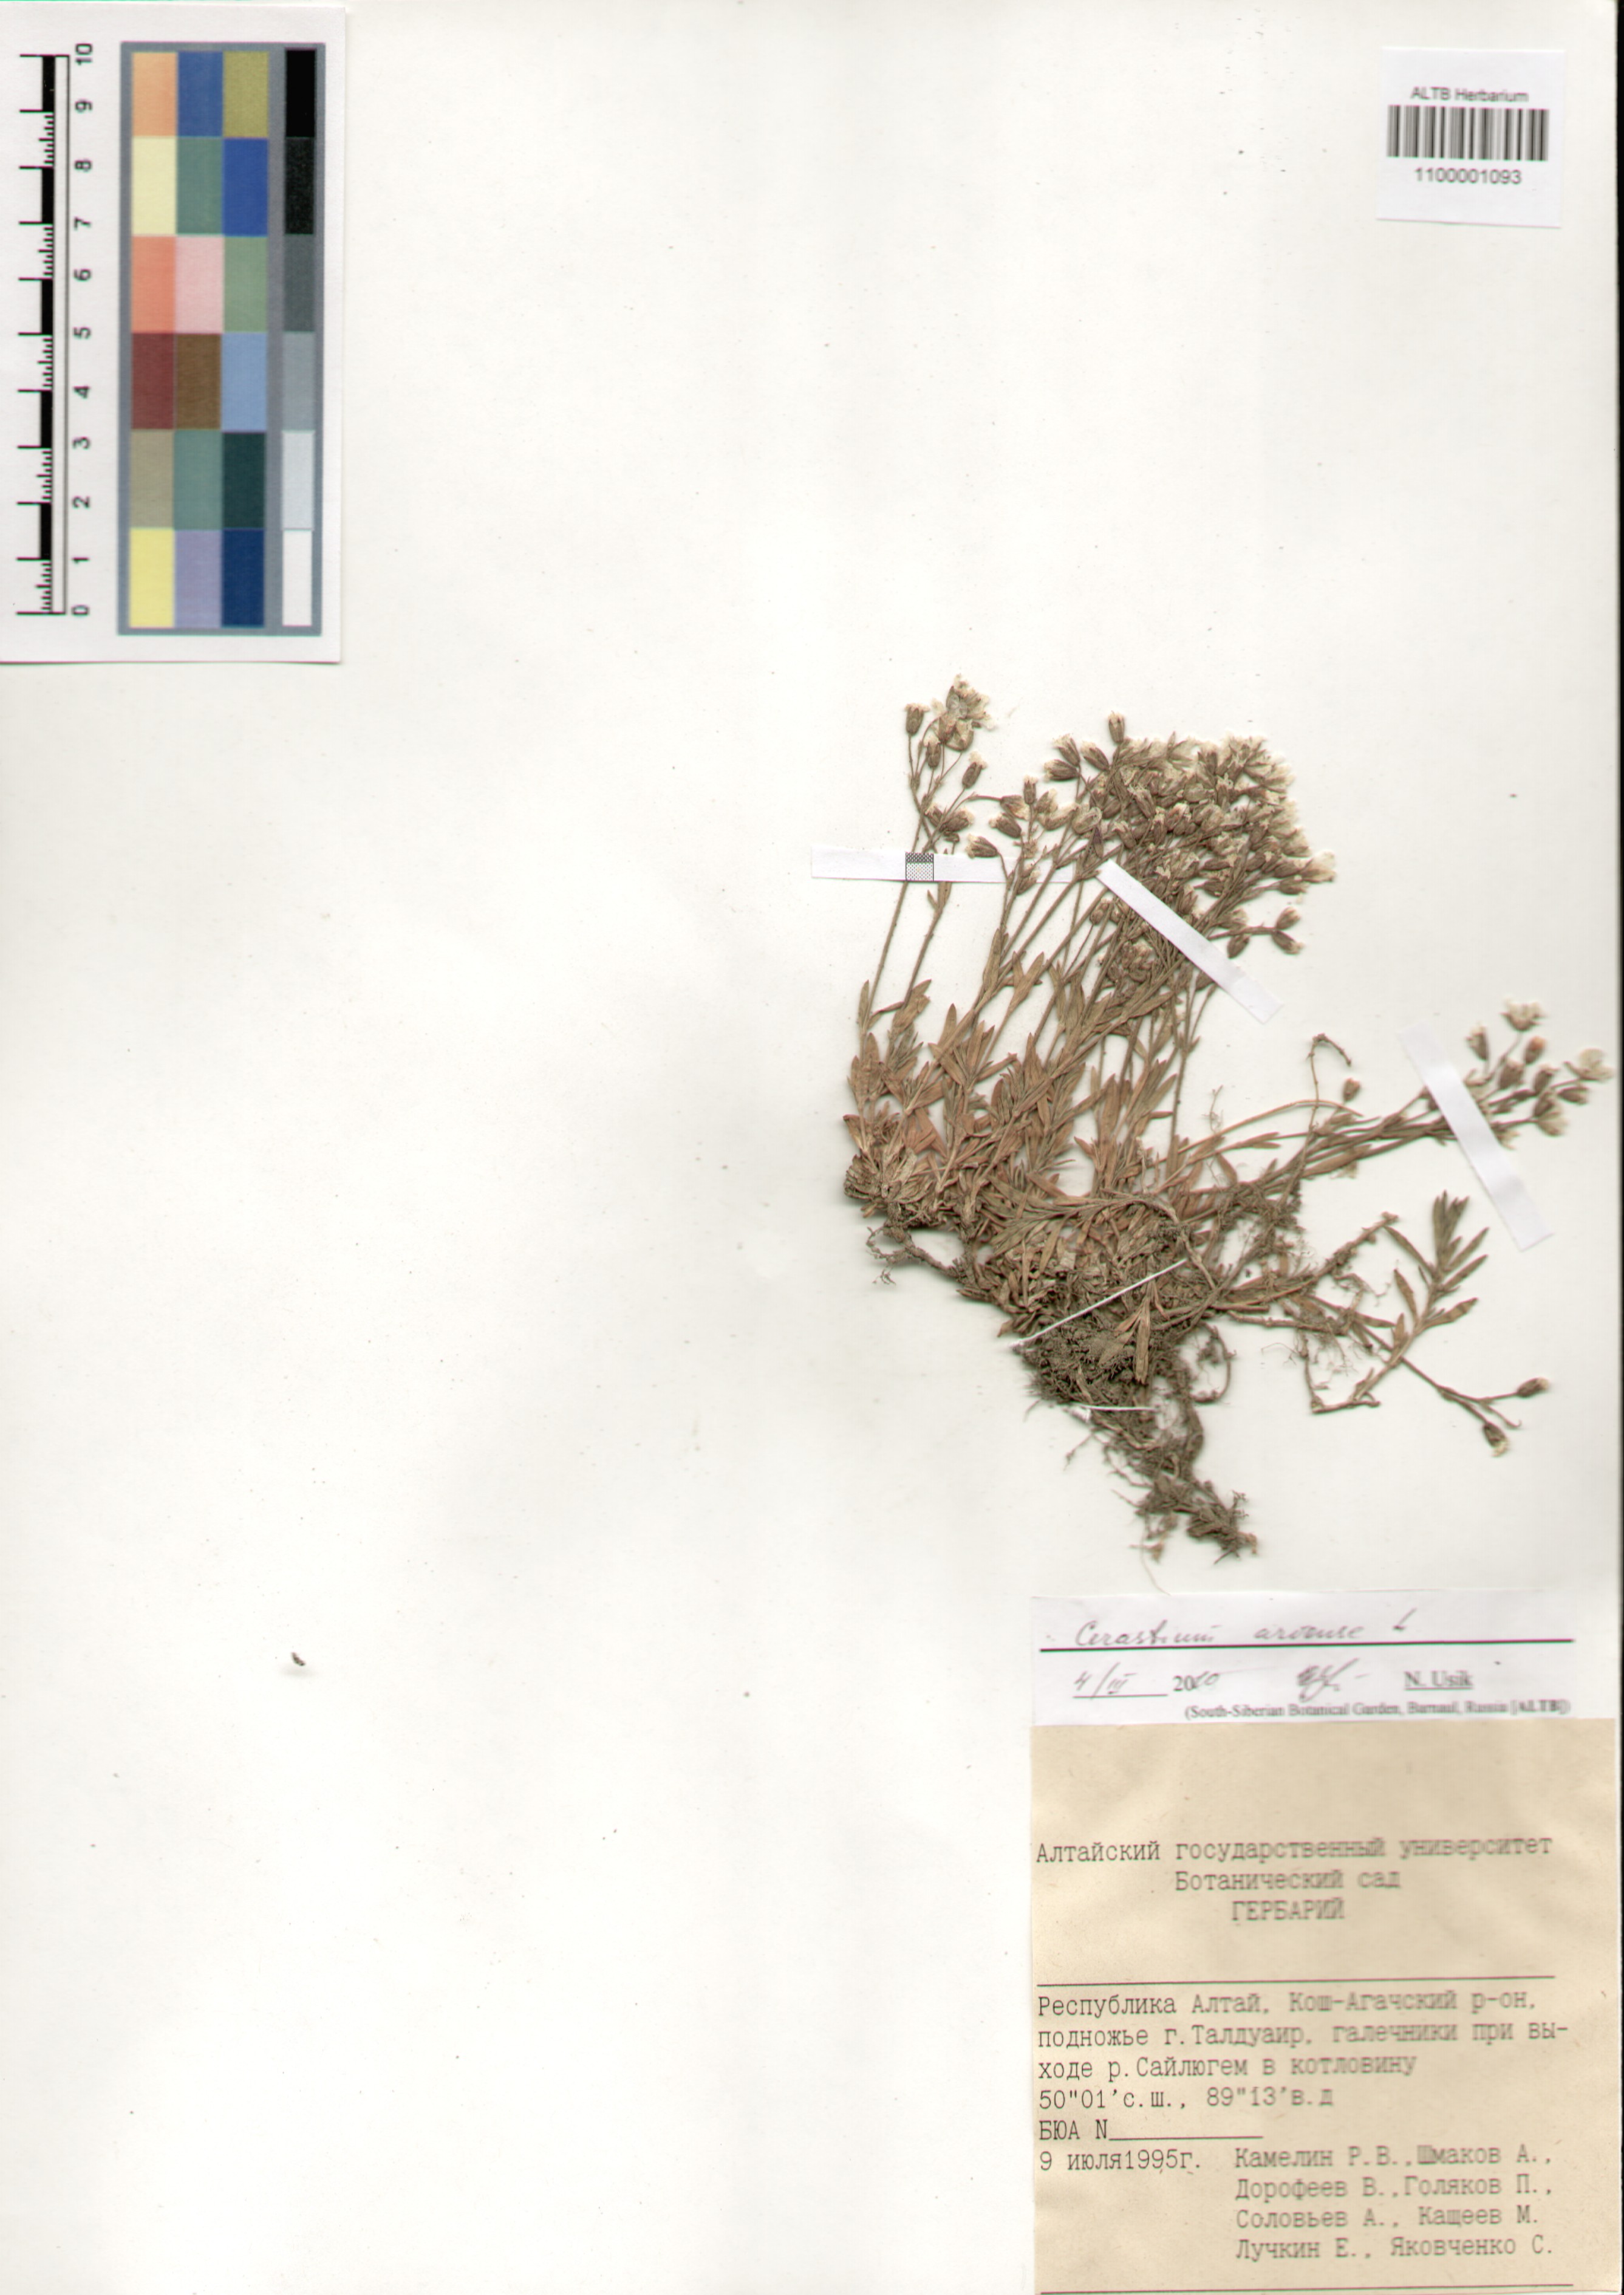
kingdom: Plantae
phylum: Tracheophyta
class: Magnoliopsida
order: Caryophyllales
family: Caryophyllaceae
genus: Cerastium
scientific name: Cerastium arvense
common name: Field mouse-ear
